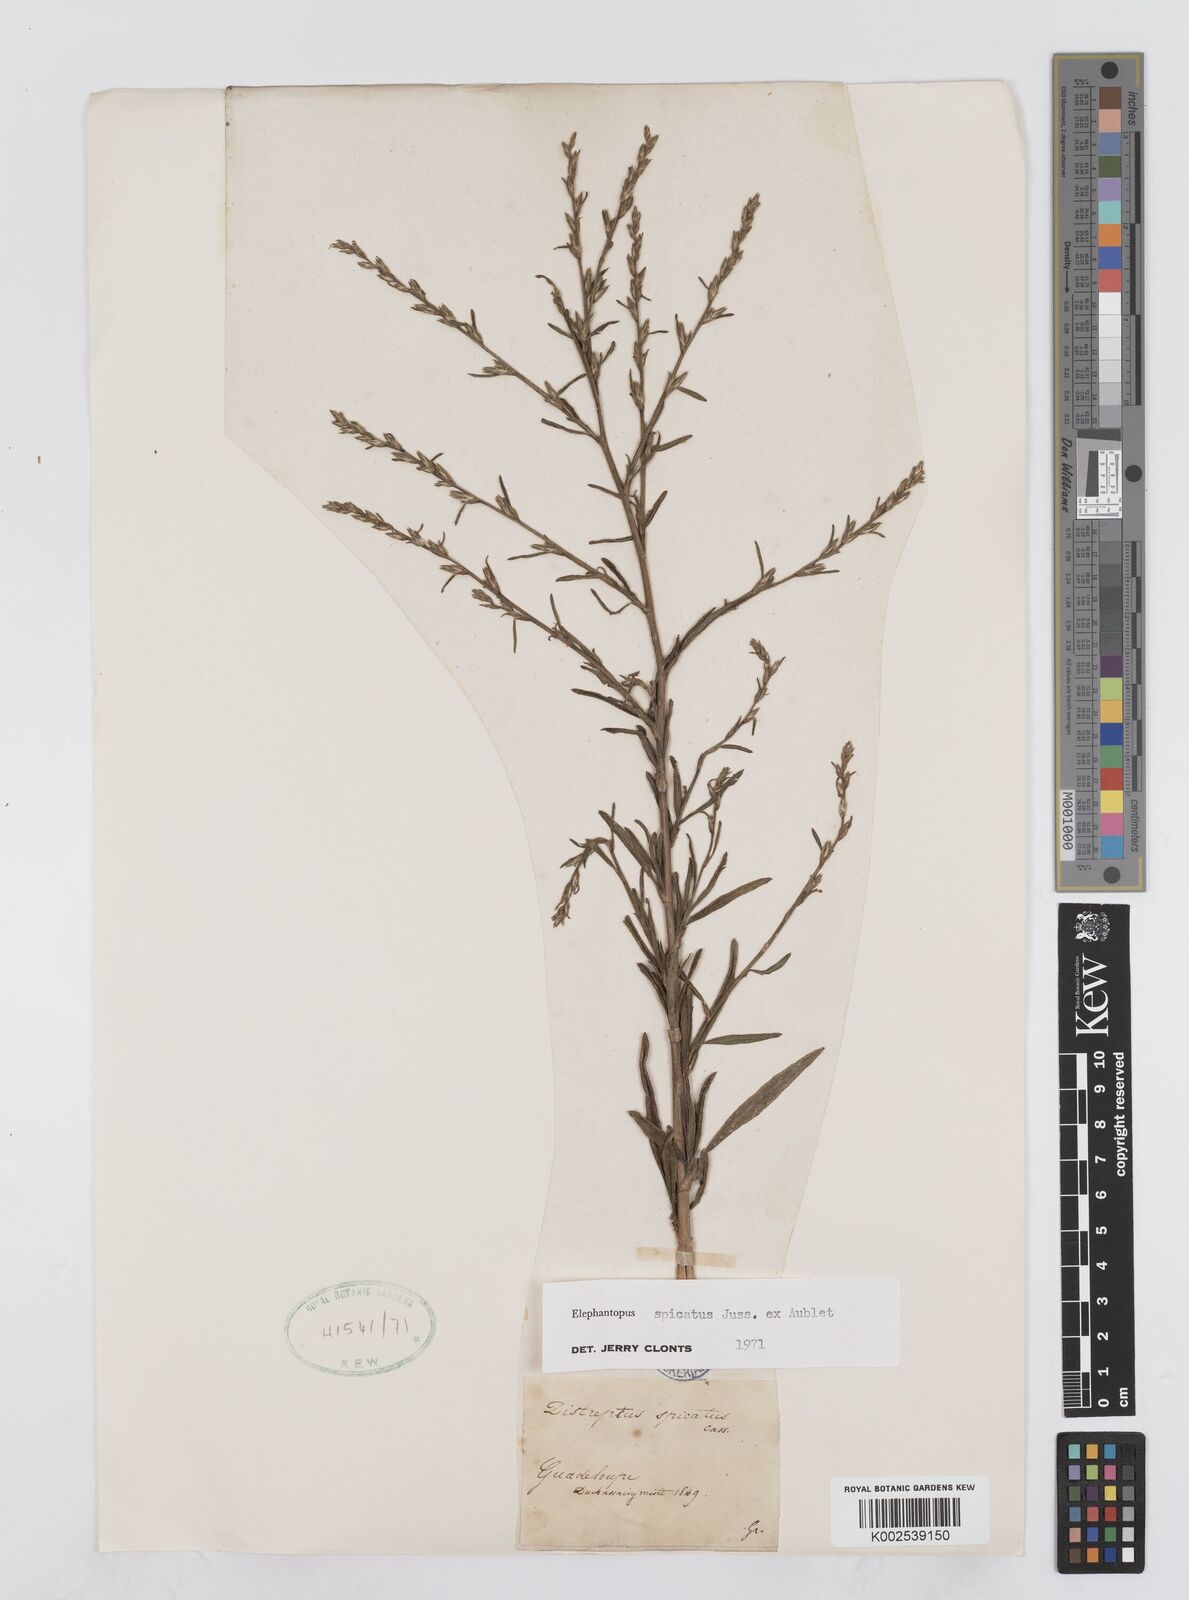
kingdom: Plantae
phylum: Tracheophyta
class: Magnoliopsida
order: Asterales
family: Asteraceae
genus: Pseudelephantopus
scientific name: Pseudelephantopus spicatus
